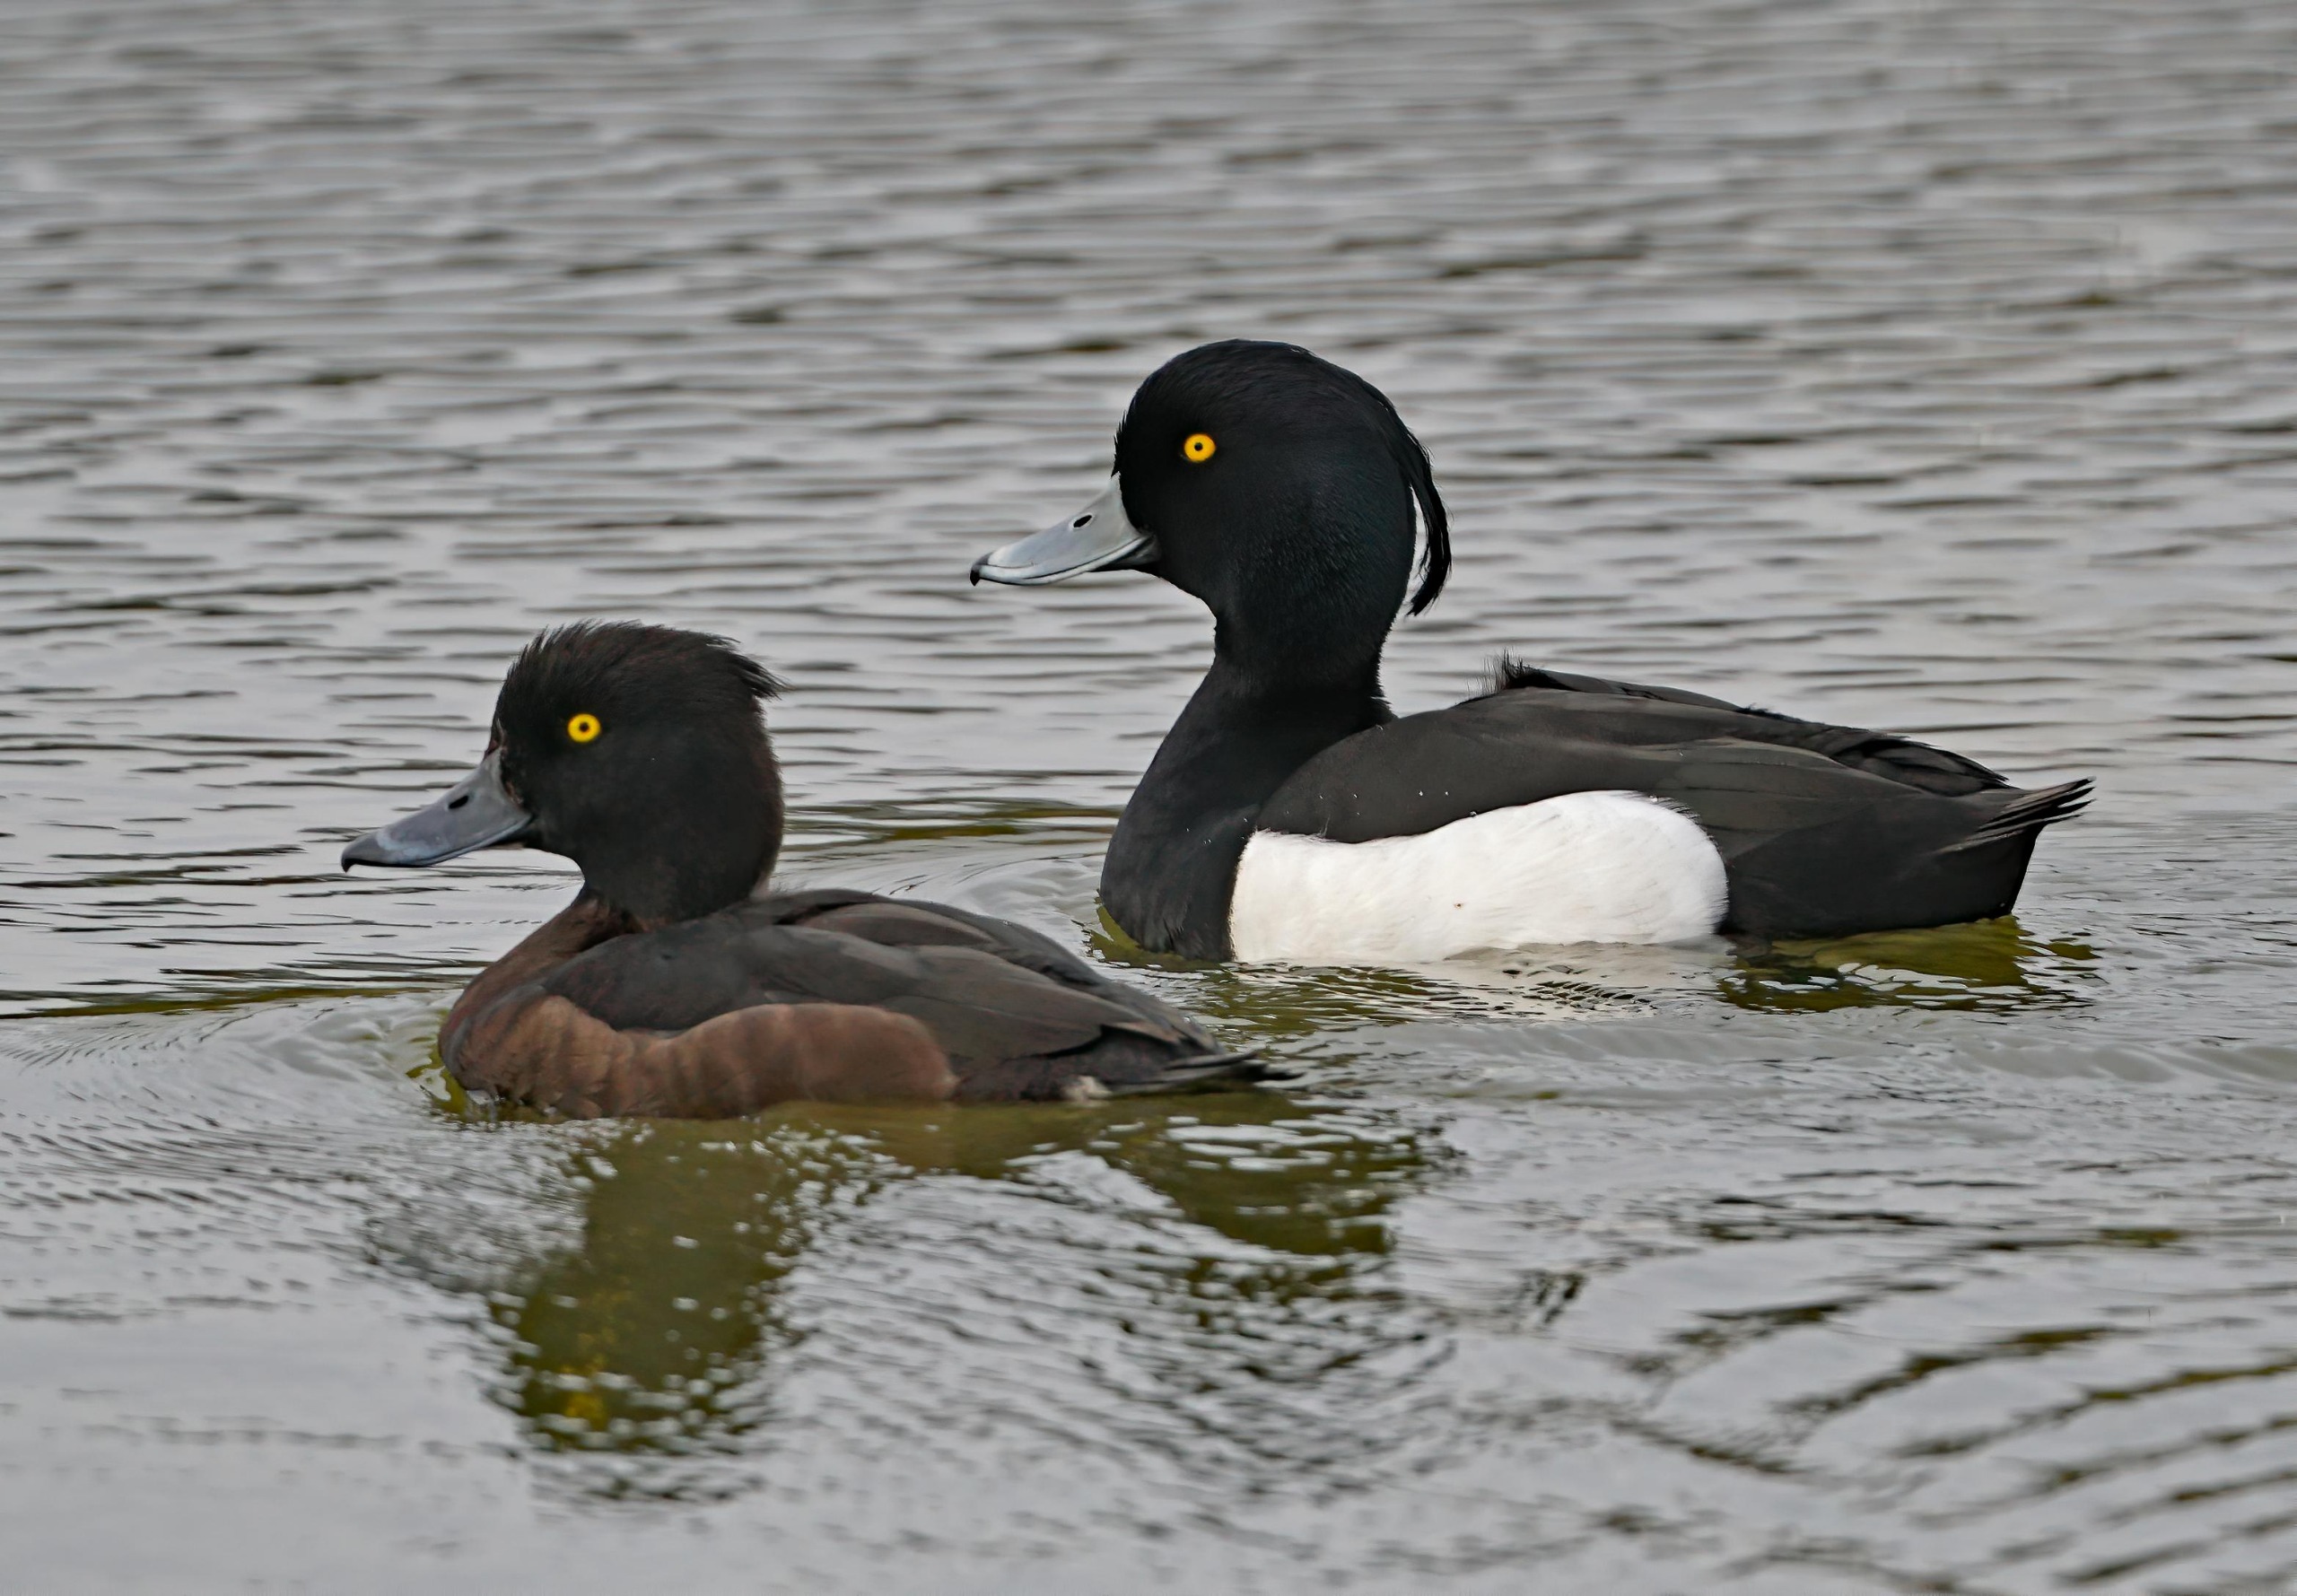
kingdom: Animalia
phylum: Chordata
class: Aves
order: Anseriformes
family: Anatidae
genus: Aythya
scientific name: Aythya fuligula
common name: Troldand
